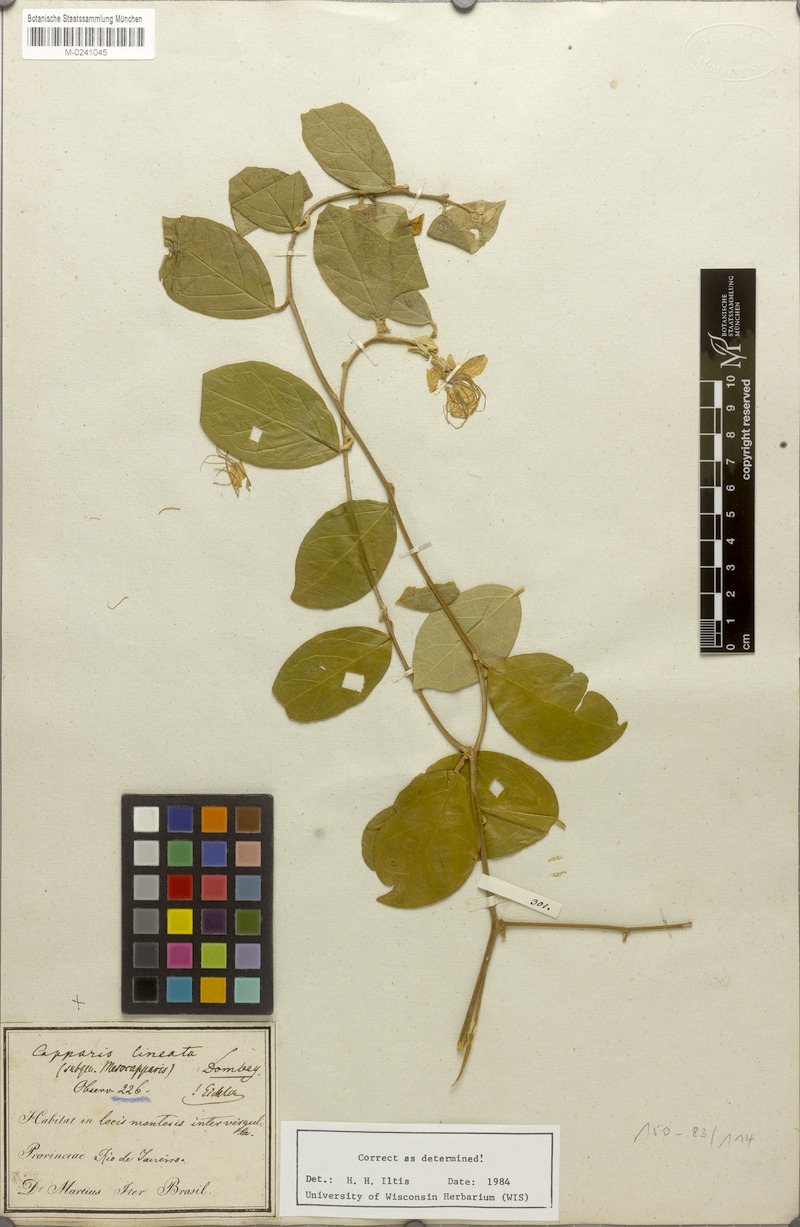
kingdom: Plantae
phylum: Tracheophyta
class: Magnoliopsida
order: Brassicales
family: Capparaceae
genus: Mesocapparis
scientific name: Mesocapparis lineata
